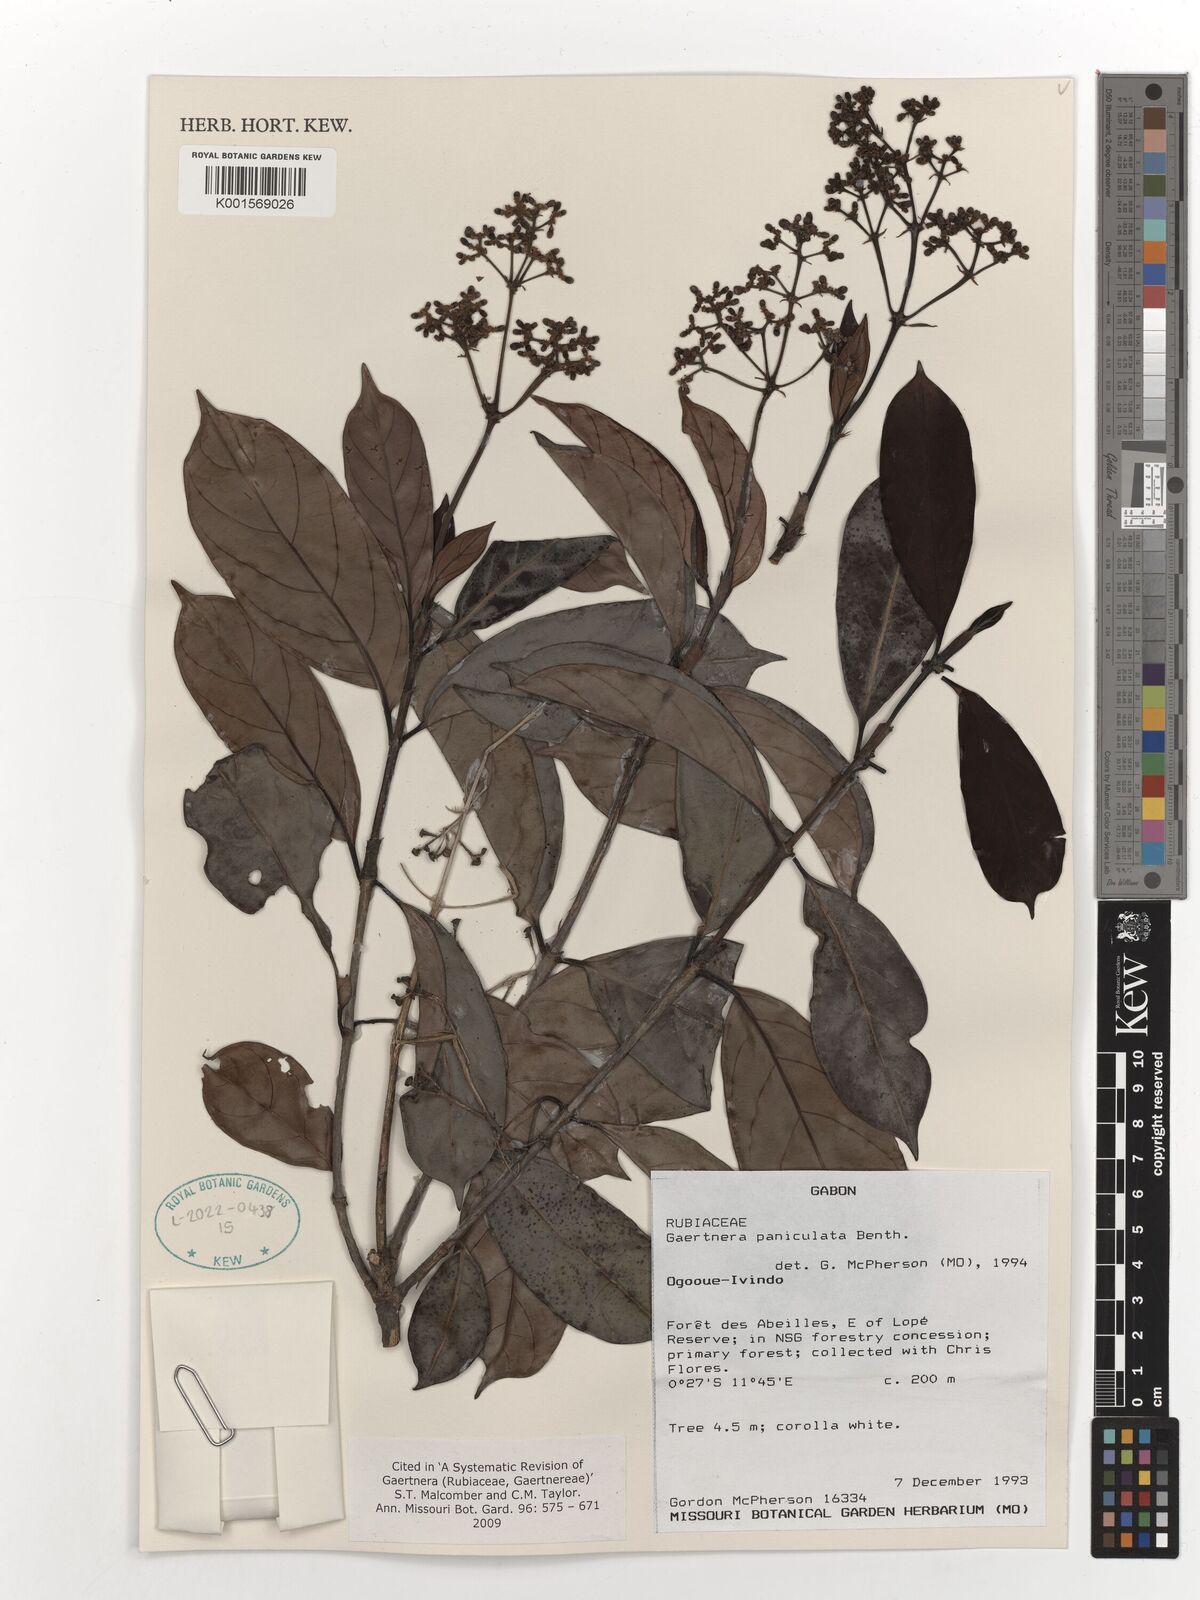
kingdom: Plantae
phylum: Tracheophyta
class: Magnoliopsida
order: Gentianales
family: Rubiaceae
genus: Gaertnera
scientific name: Gaertnera paniculata
